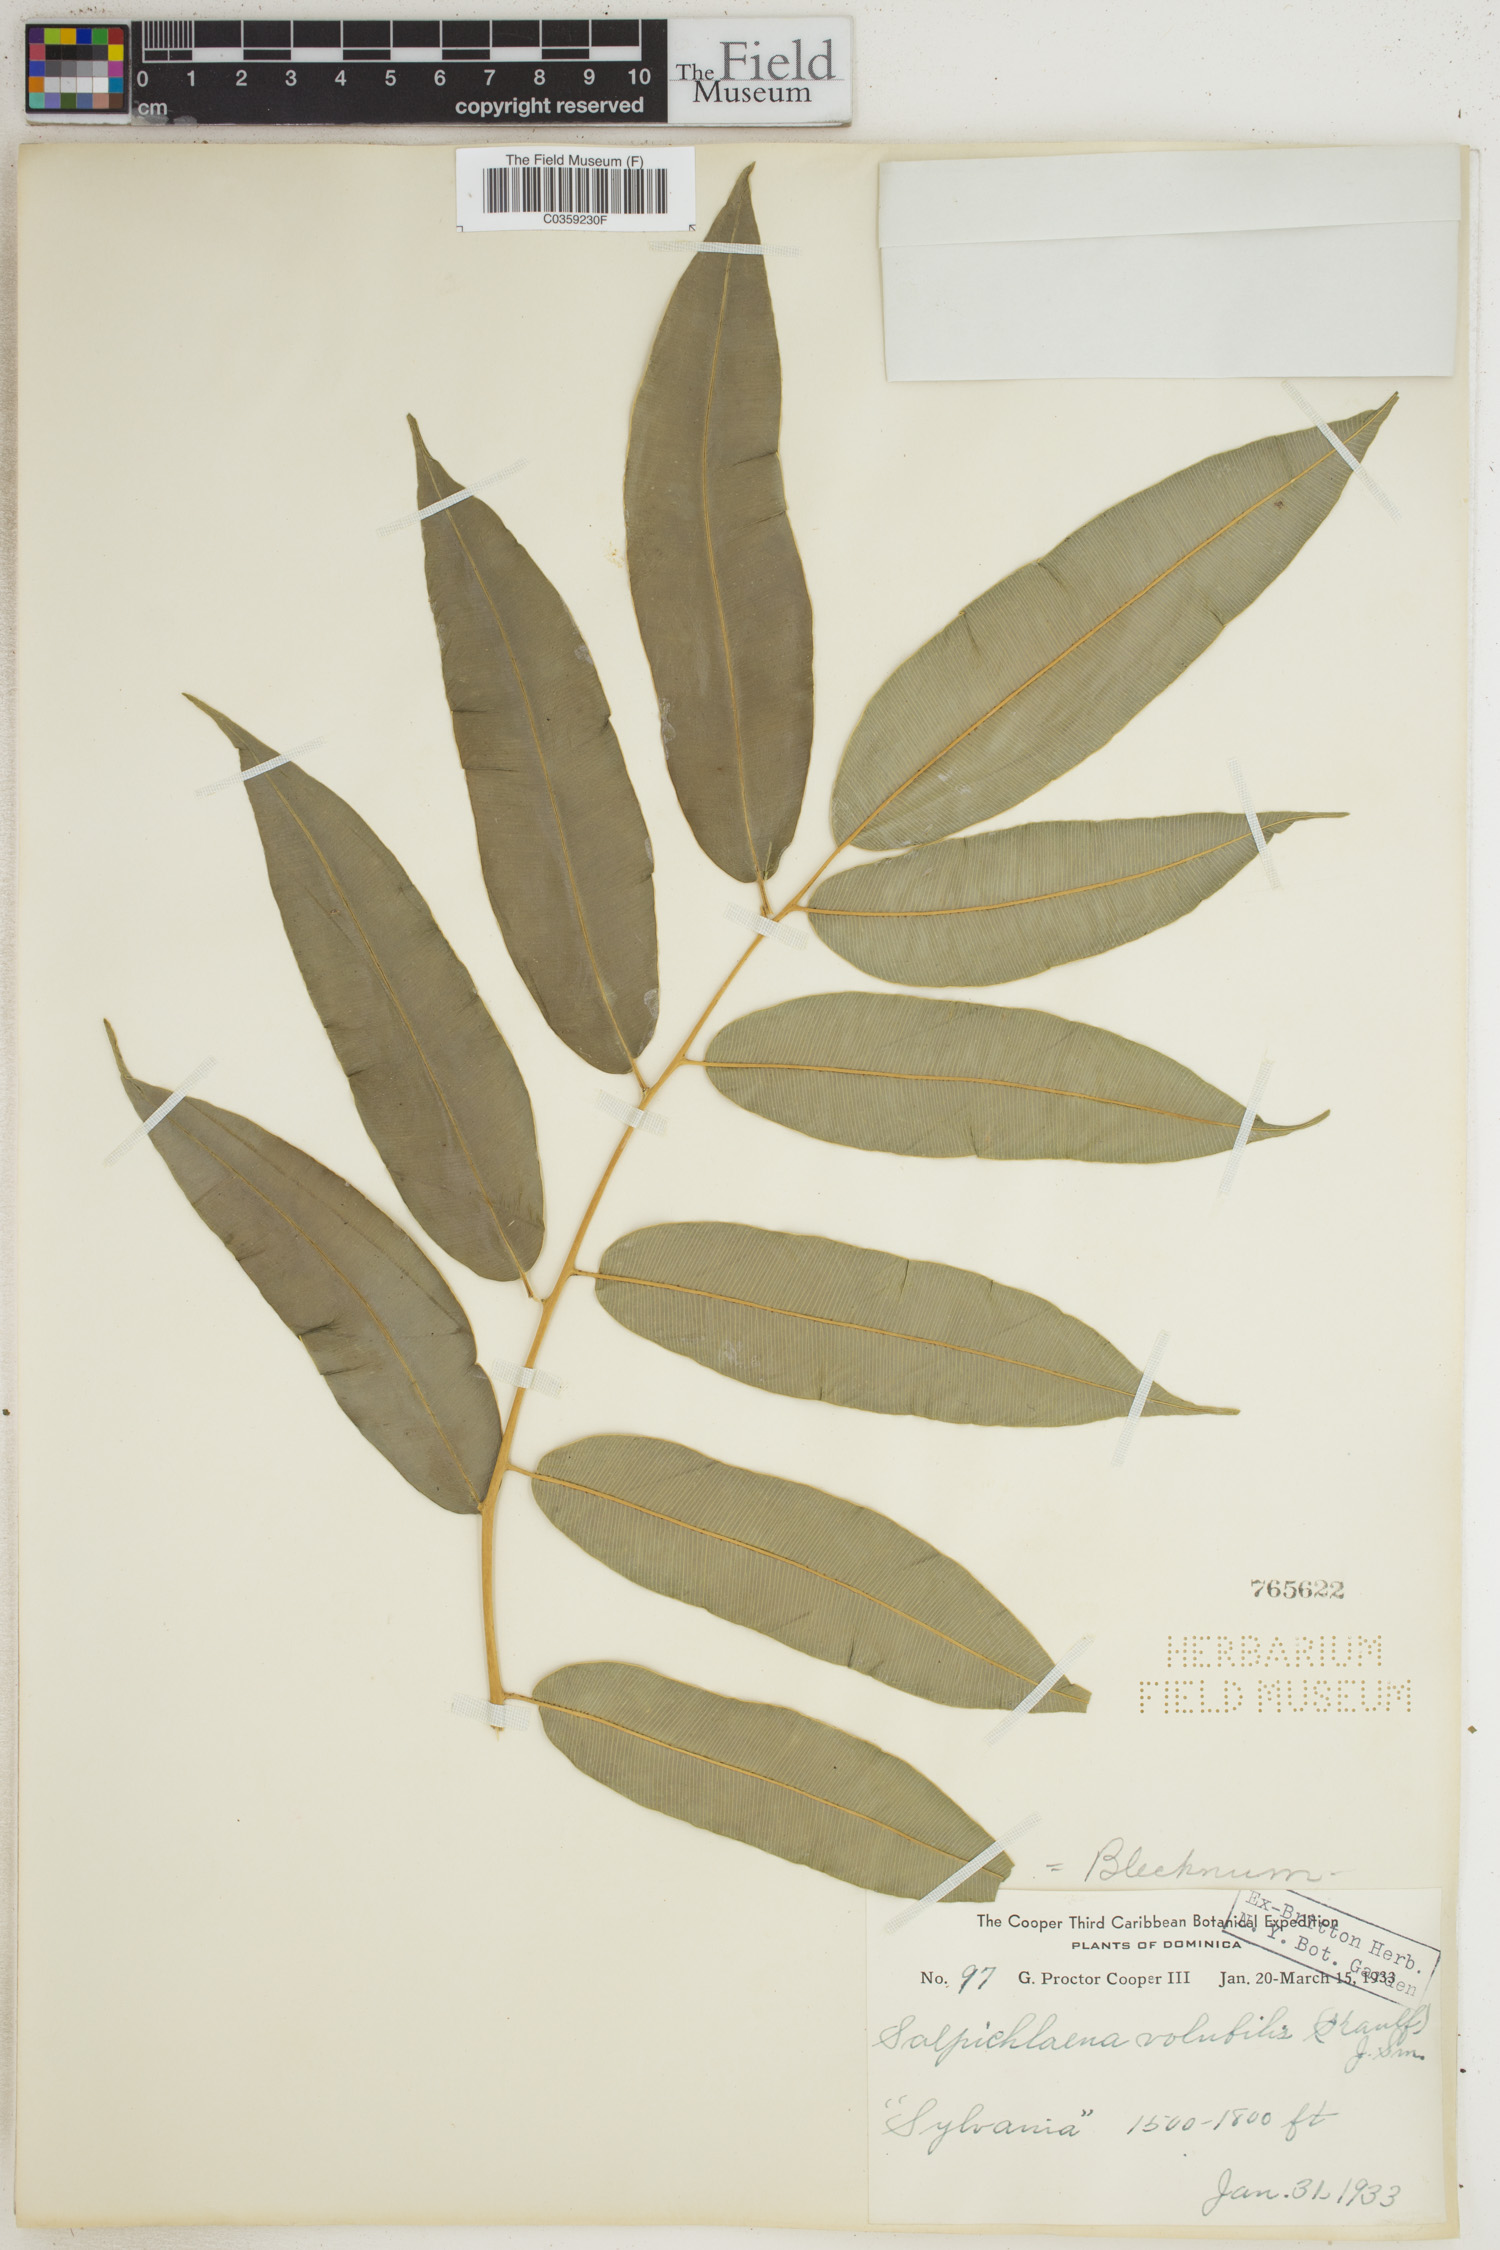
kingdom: Plantae
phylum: Tracheophyta
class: Polypodiopsida
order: Polypodiales
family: Blechnaceae
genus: Salpichlaena
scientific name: Salpichlaena volubilis
